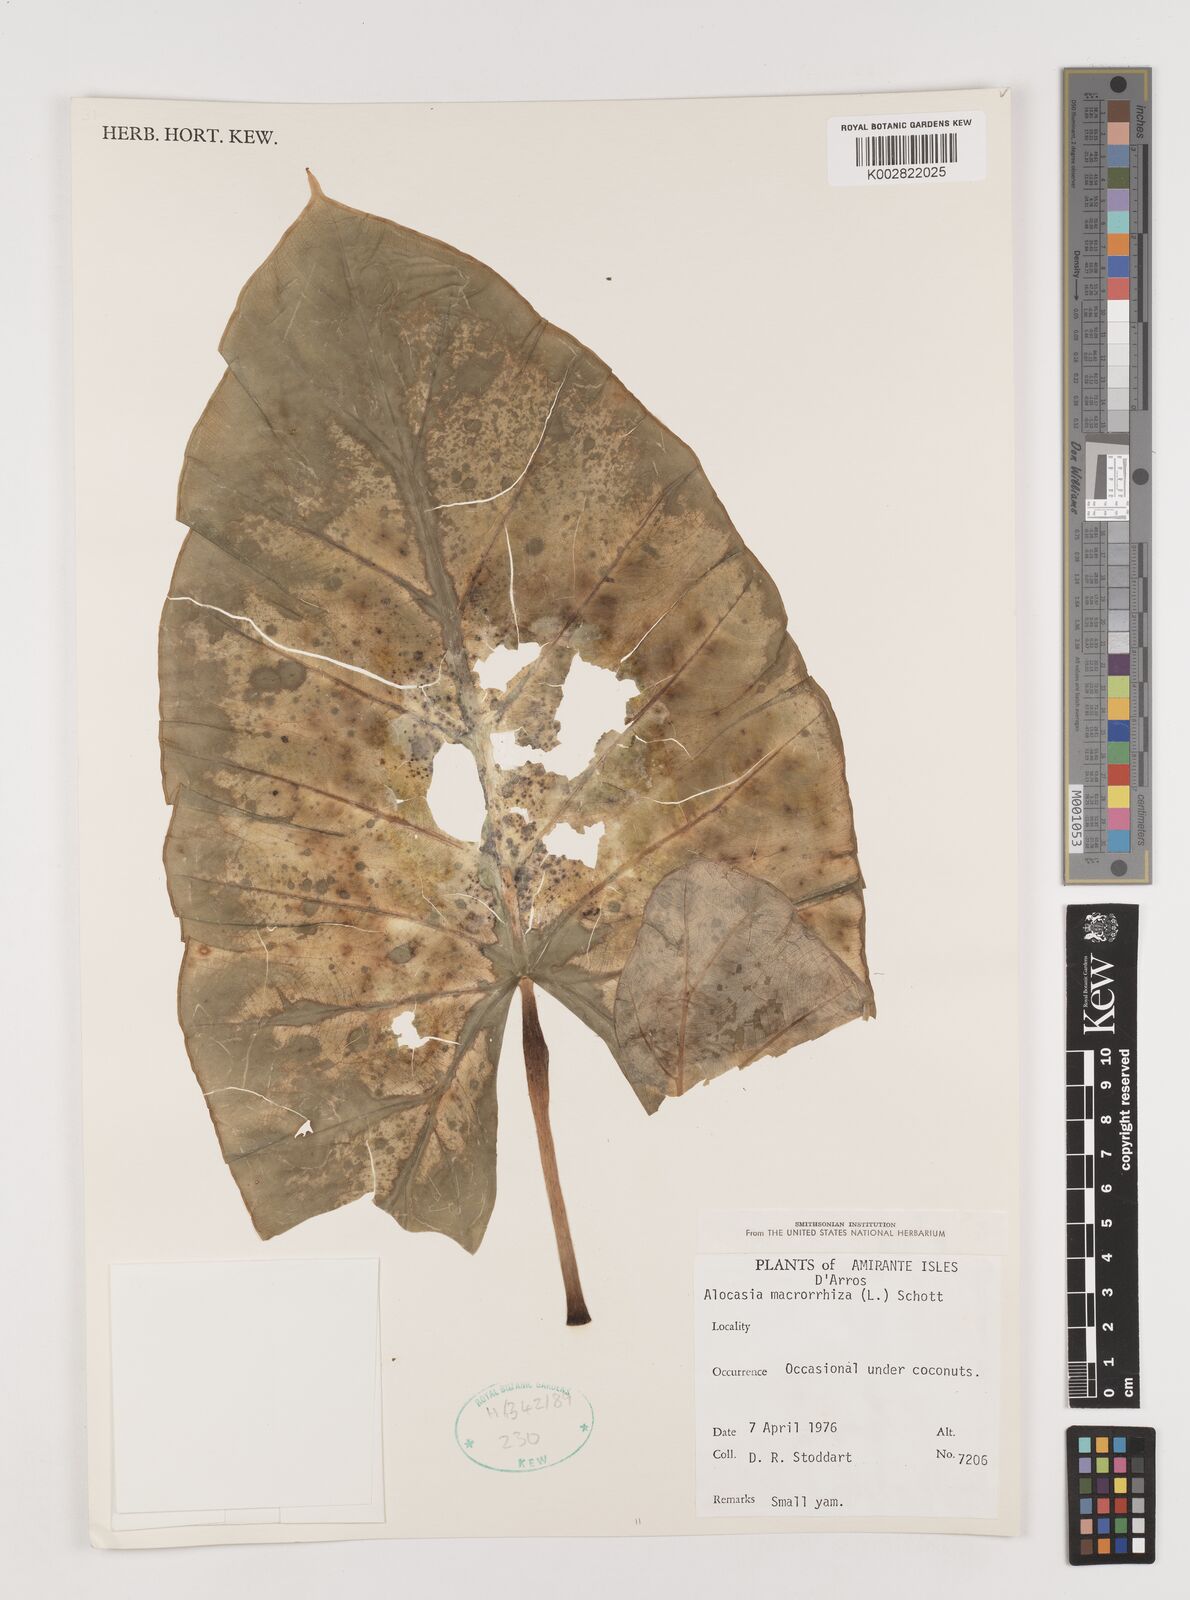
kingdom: Plantae
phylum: Tracheophyta
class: Liliopsida
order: Alismatales
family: Araceae
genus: Alocasia
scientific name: Alocasia macrorrhizos
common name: Giant taro
